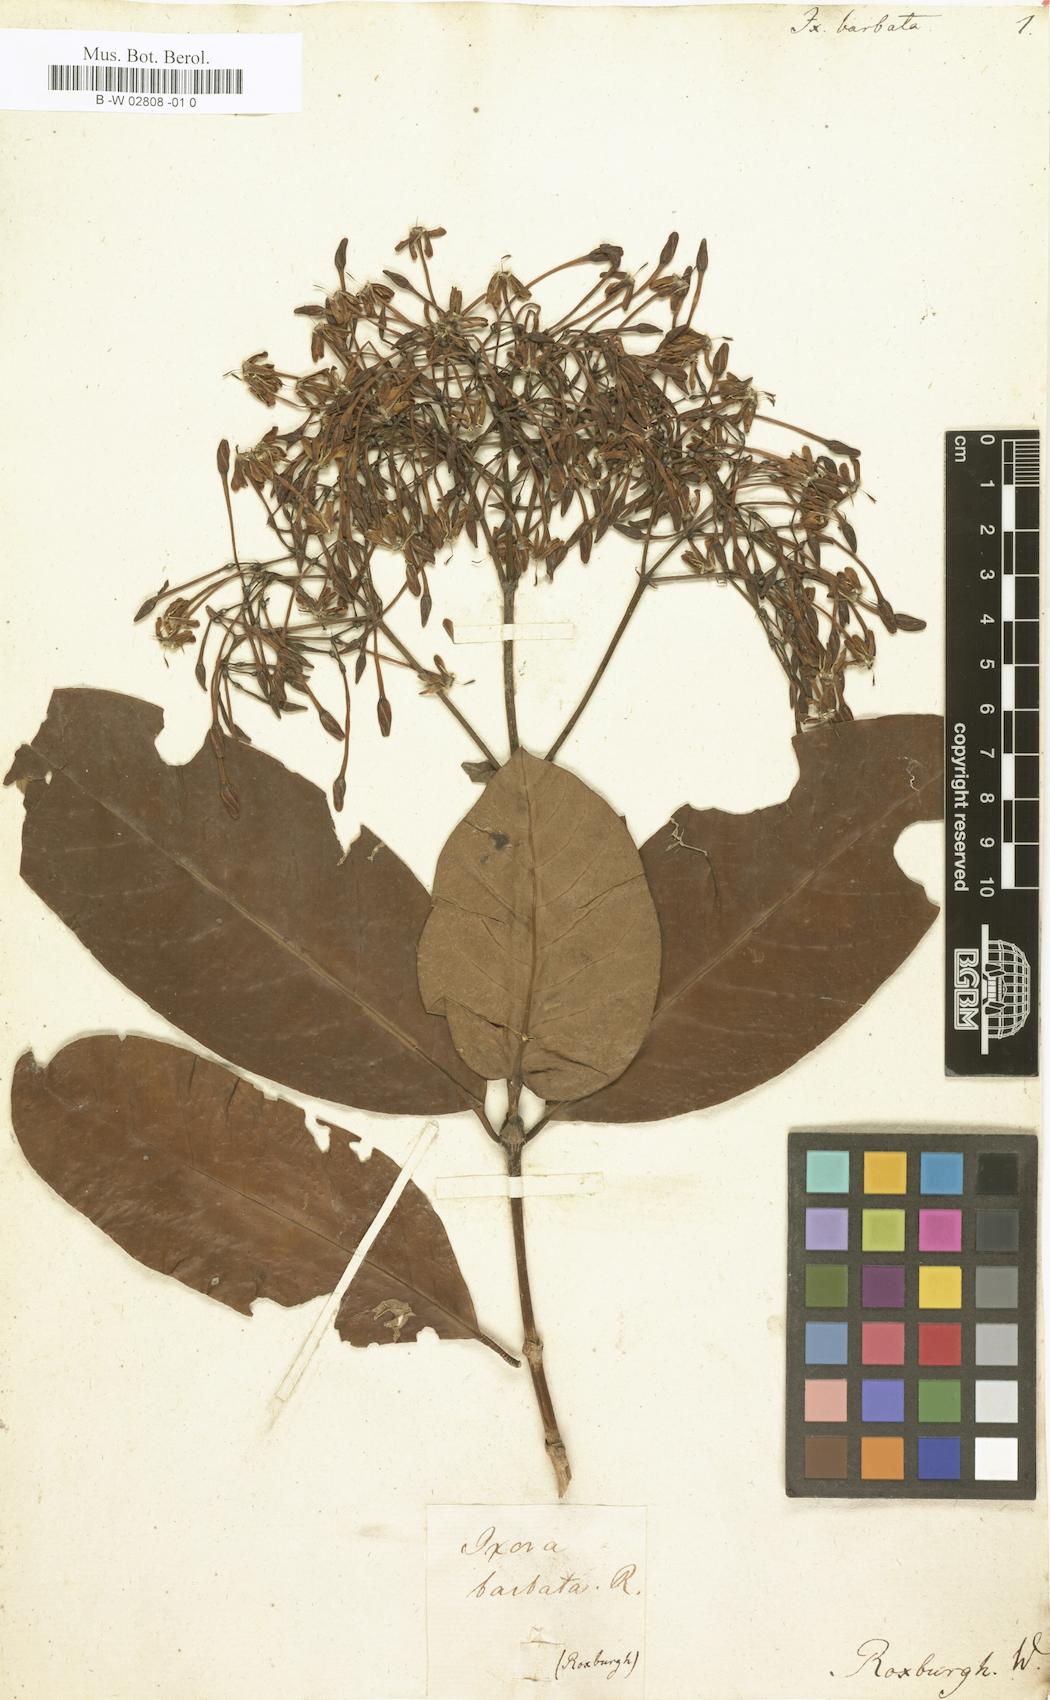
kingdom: Plantae
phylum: Tracheophyta
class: Magnoliopsida
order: Gentianales
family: Rubiaceae
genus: Ixora
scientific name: Ixora barbata
